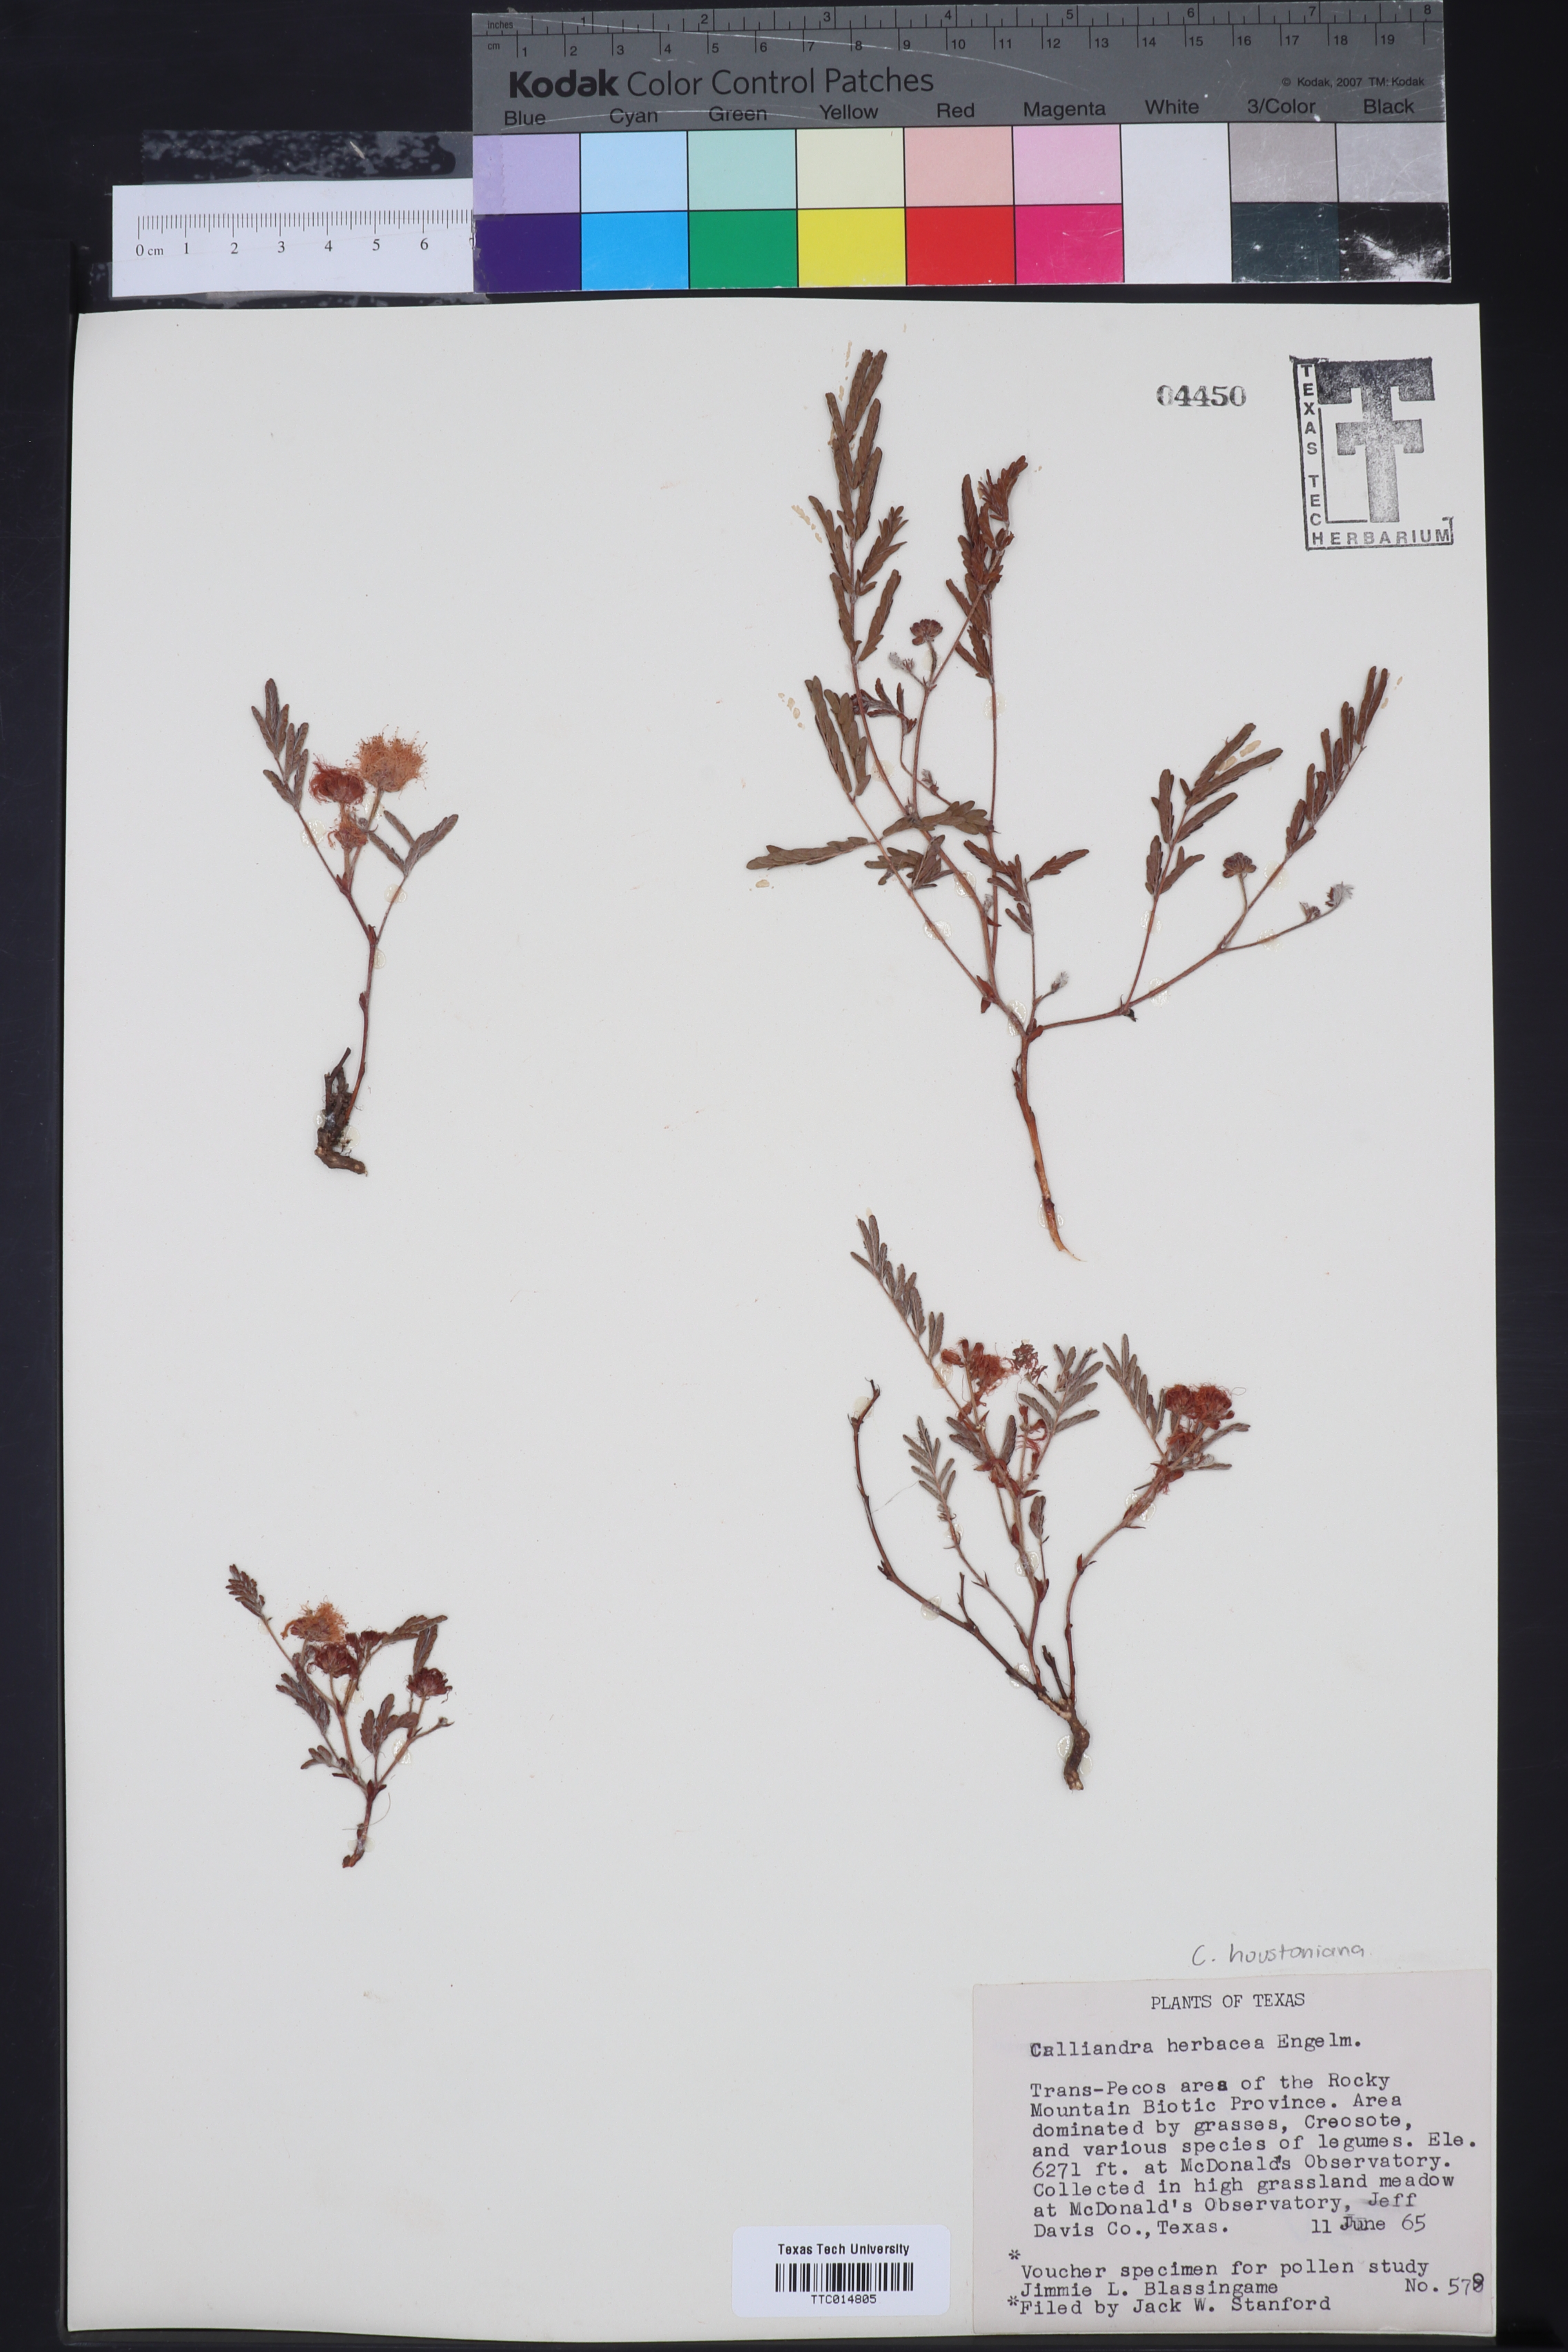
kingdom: Plantae
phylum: Tracheophyta
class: Magnoliopsida
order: Fabales
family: Fabaceae
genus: Calliandra
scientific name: Calliandra humilis
